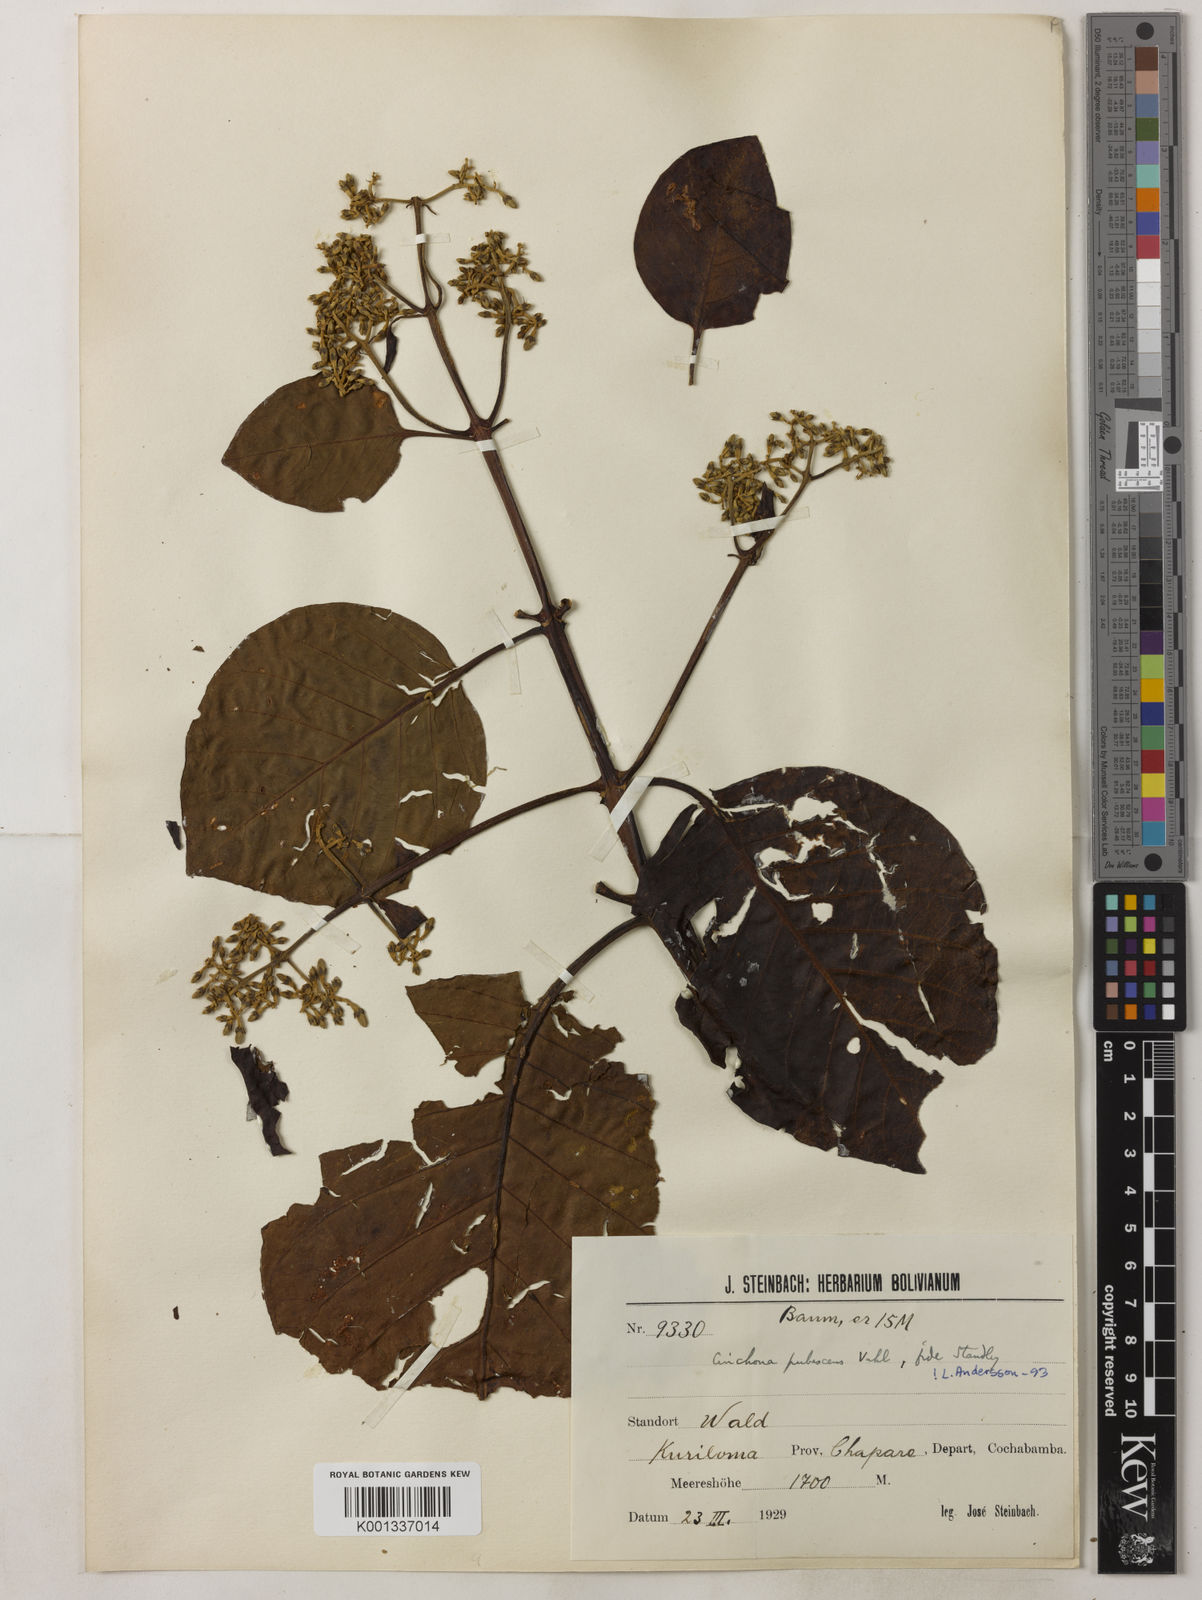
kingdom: Plantae
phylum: Tracheophyta
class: Magnoliopsida
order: Gentianales
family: Rubiaceae
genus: Cinchona
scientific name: Cinchona pubescens
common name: Quinine
